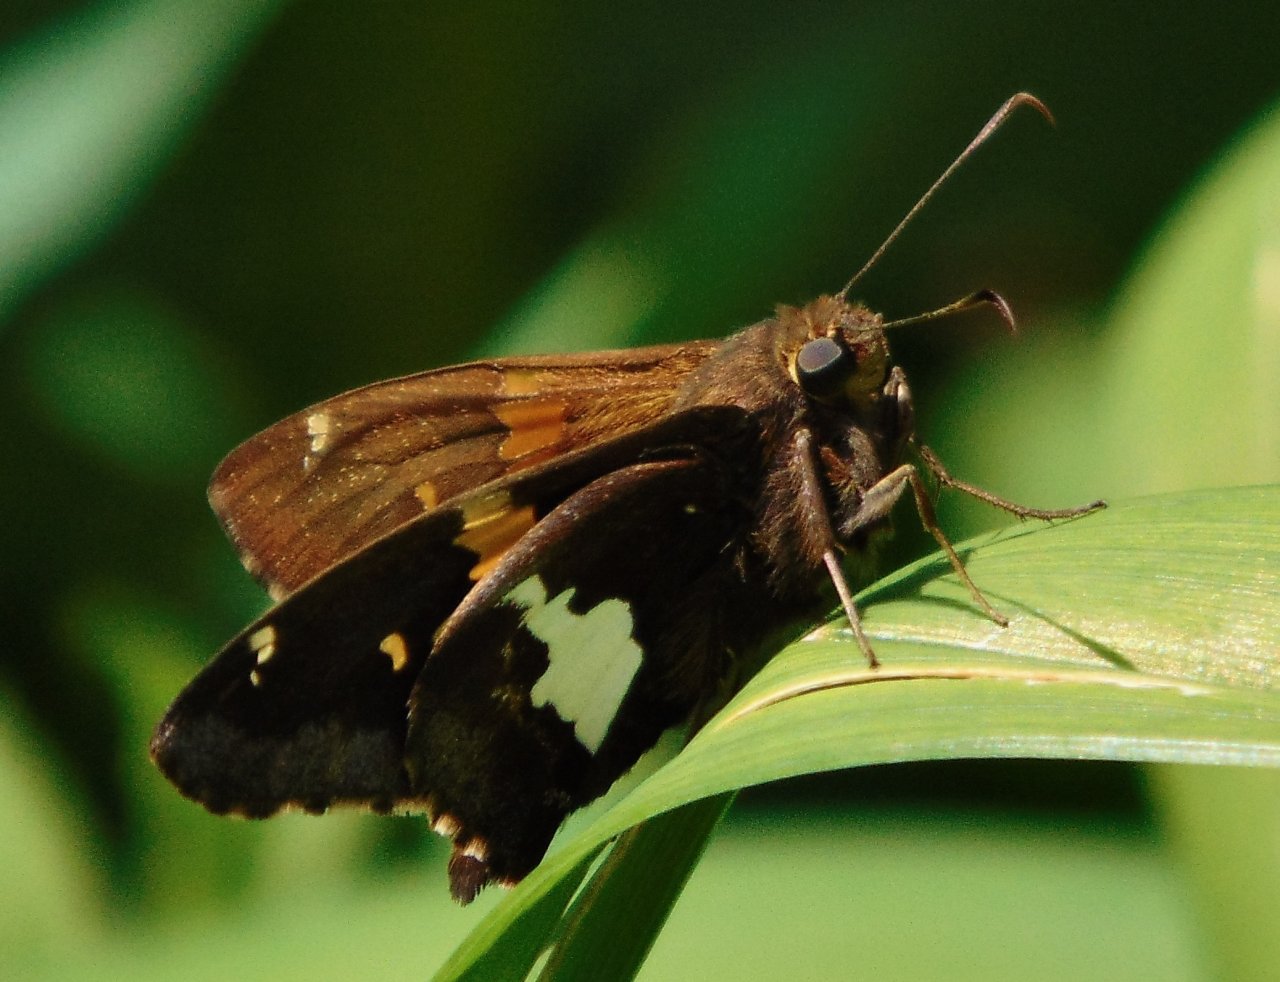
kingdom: Animalia
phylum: Arthropoda
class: Insecta
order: Lepidoptera
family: Hesperiidae
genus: Epargyreus
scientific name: Epargyreus clarus
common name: Silver-spotted Skipper
